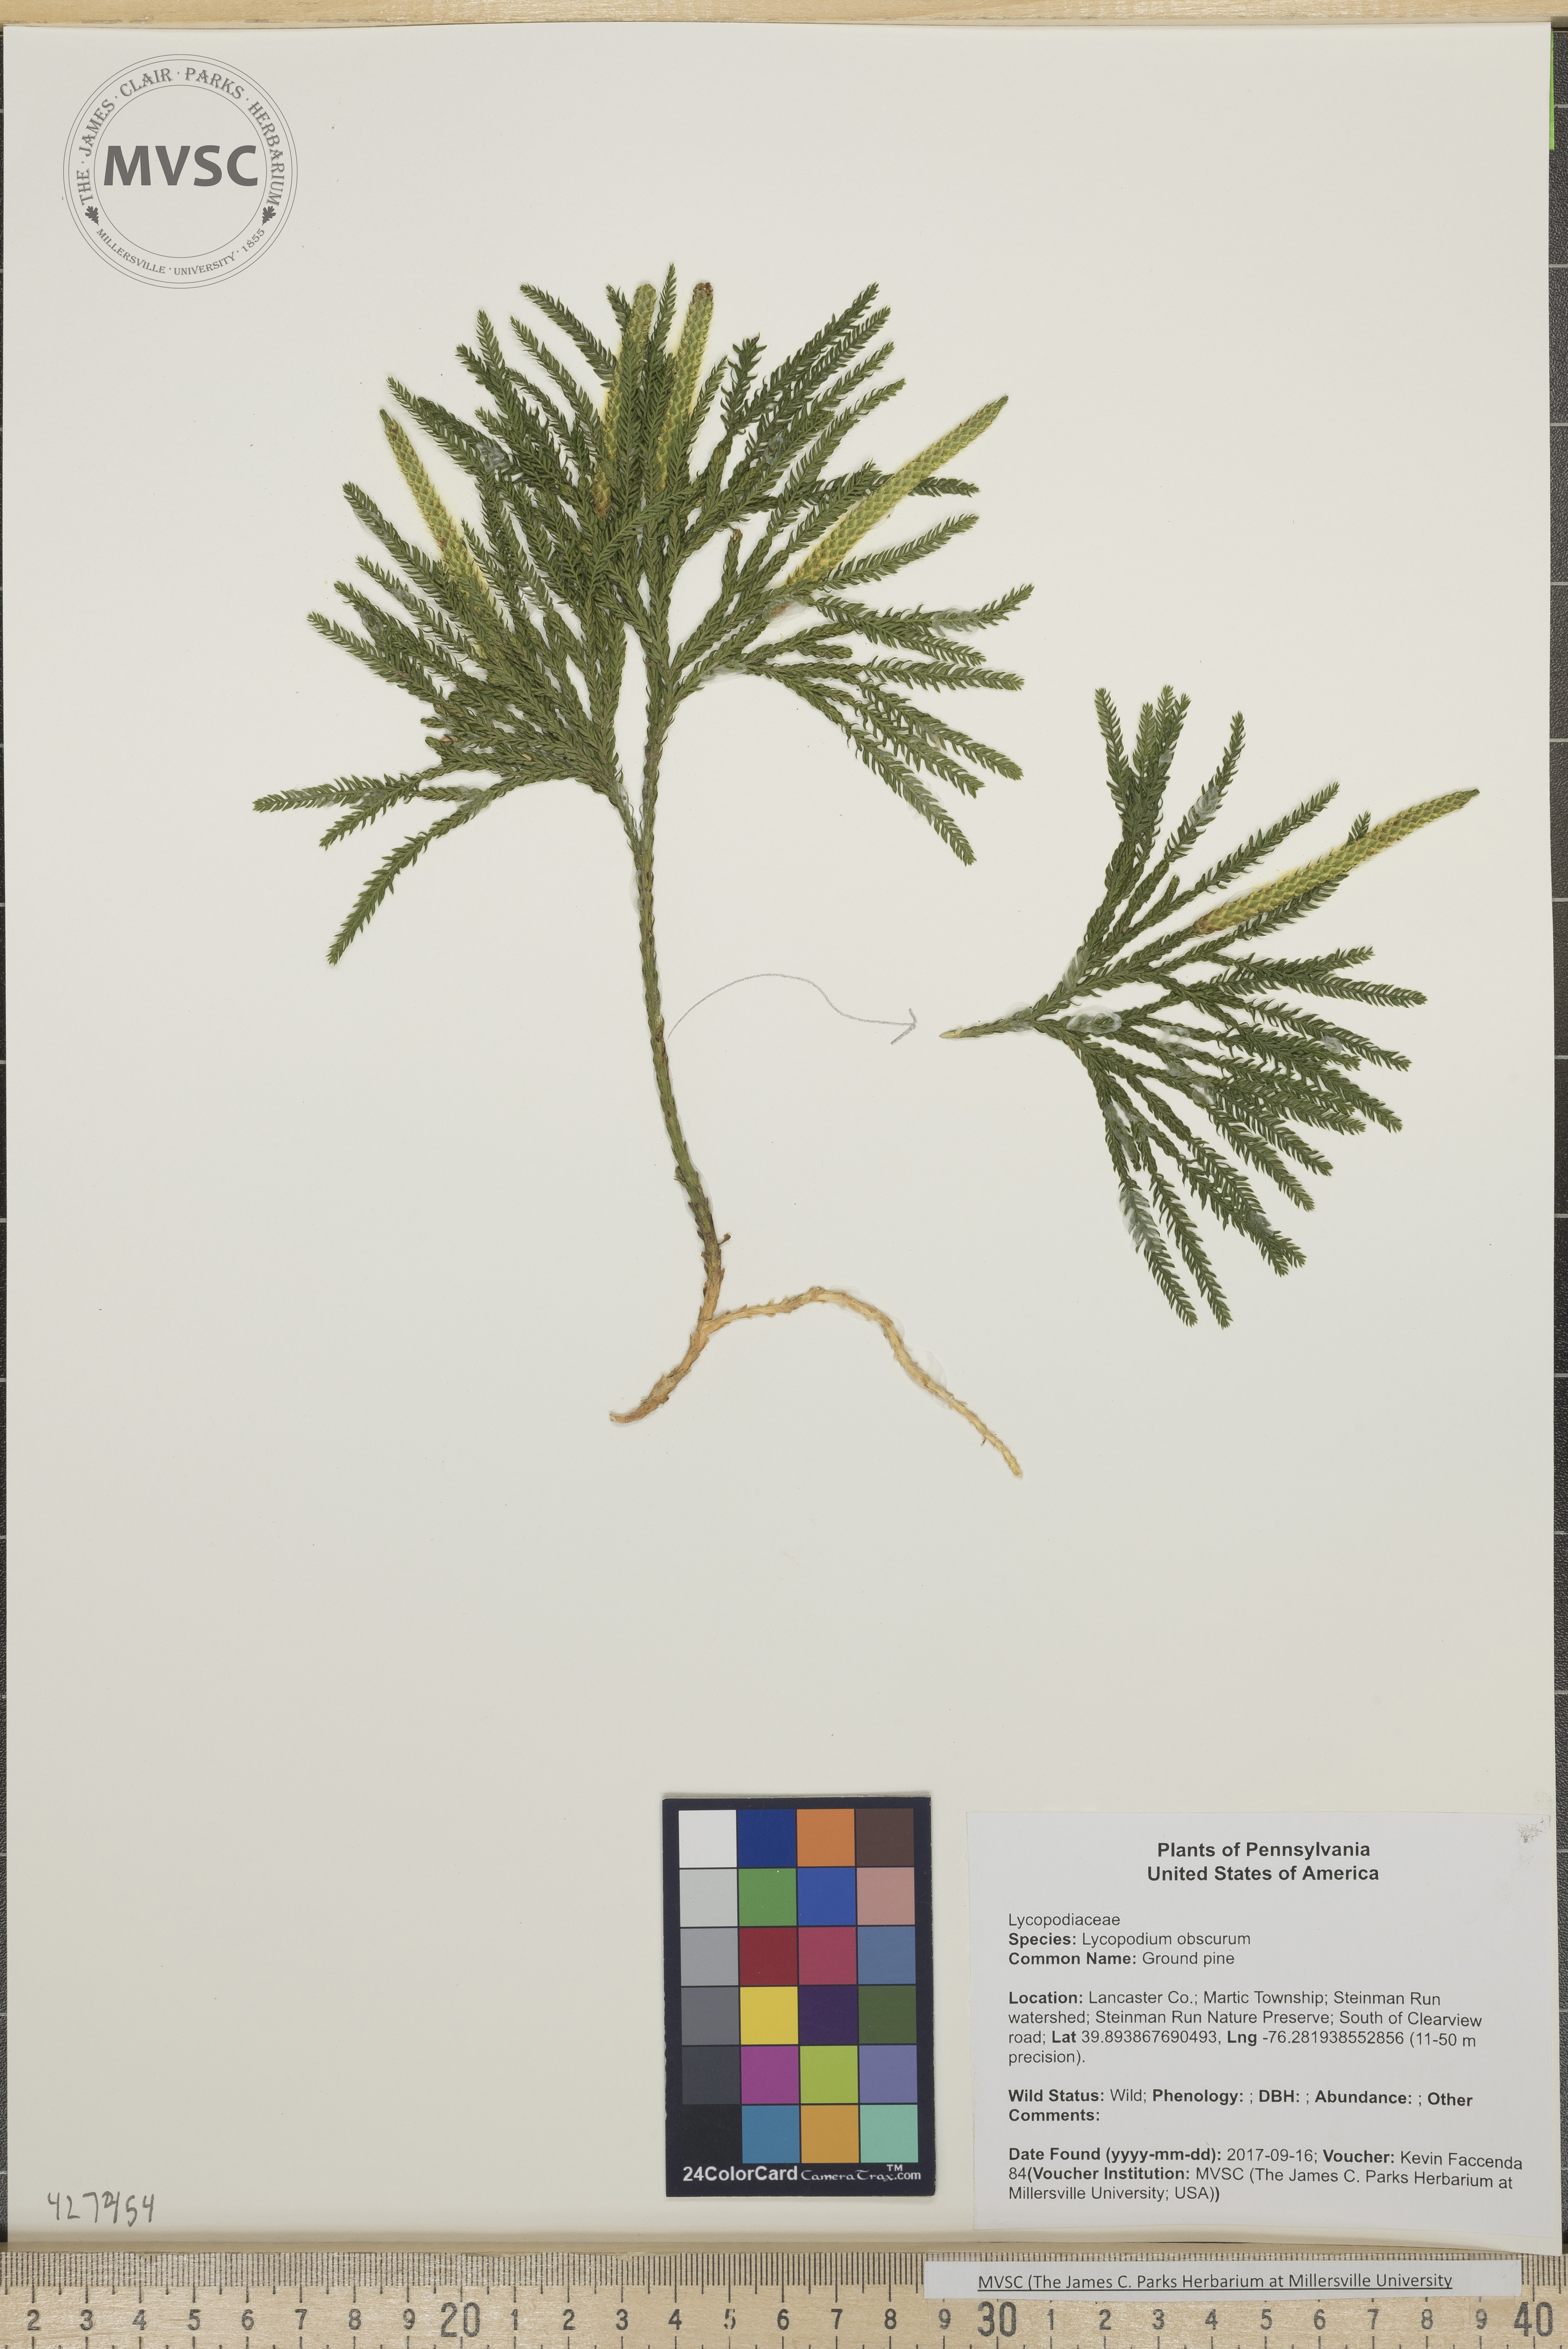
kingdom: Plantae
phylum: Tracheophyta
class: Lycopodiopsida
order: Lycopodiales
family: Lycopodiaceae
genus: Dendrolycopodium
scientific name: Dendrolycopodium obscurum
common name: Ground pine
